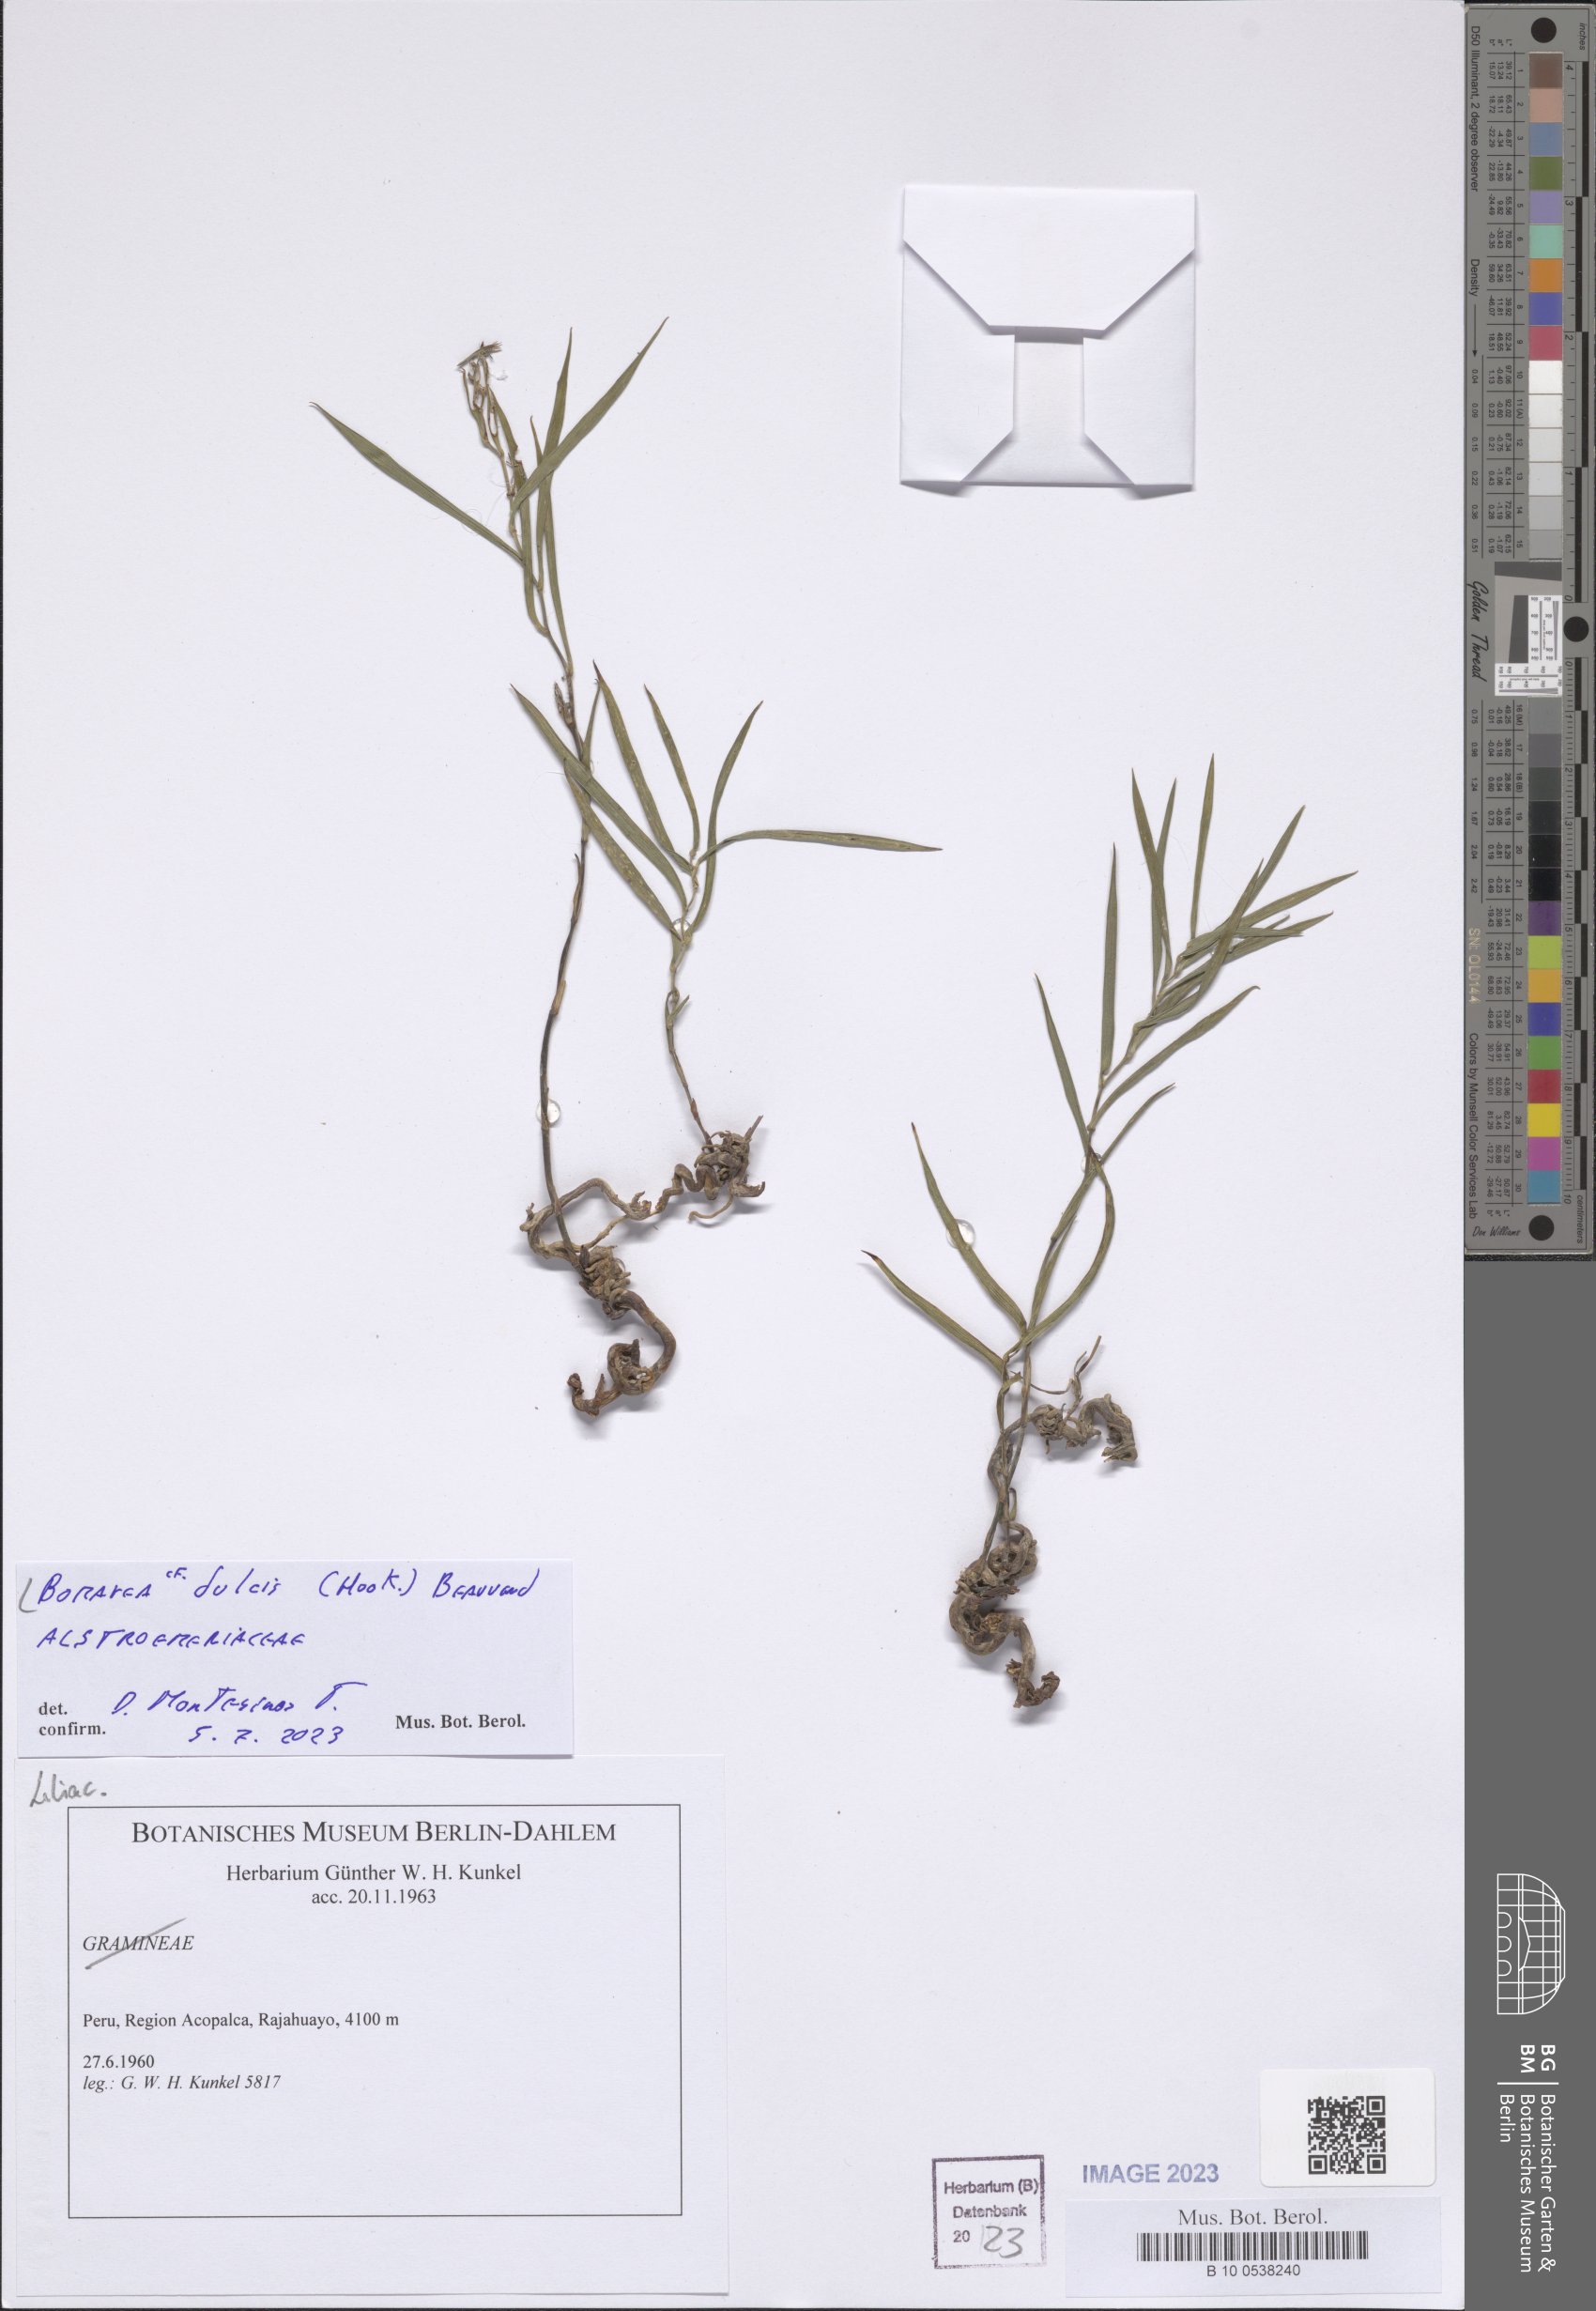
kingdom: Plantae
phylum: Tracheophyta
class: Liliopsida
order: Liliales
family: Alstroemeriaceae
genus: Bomarea
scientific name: Bomarea dulcis
